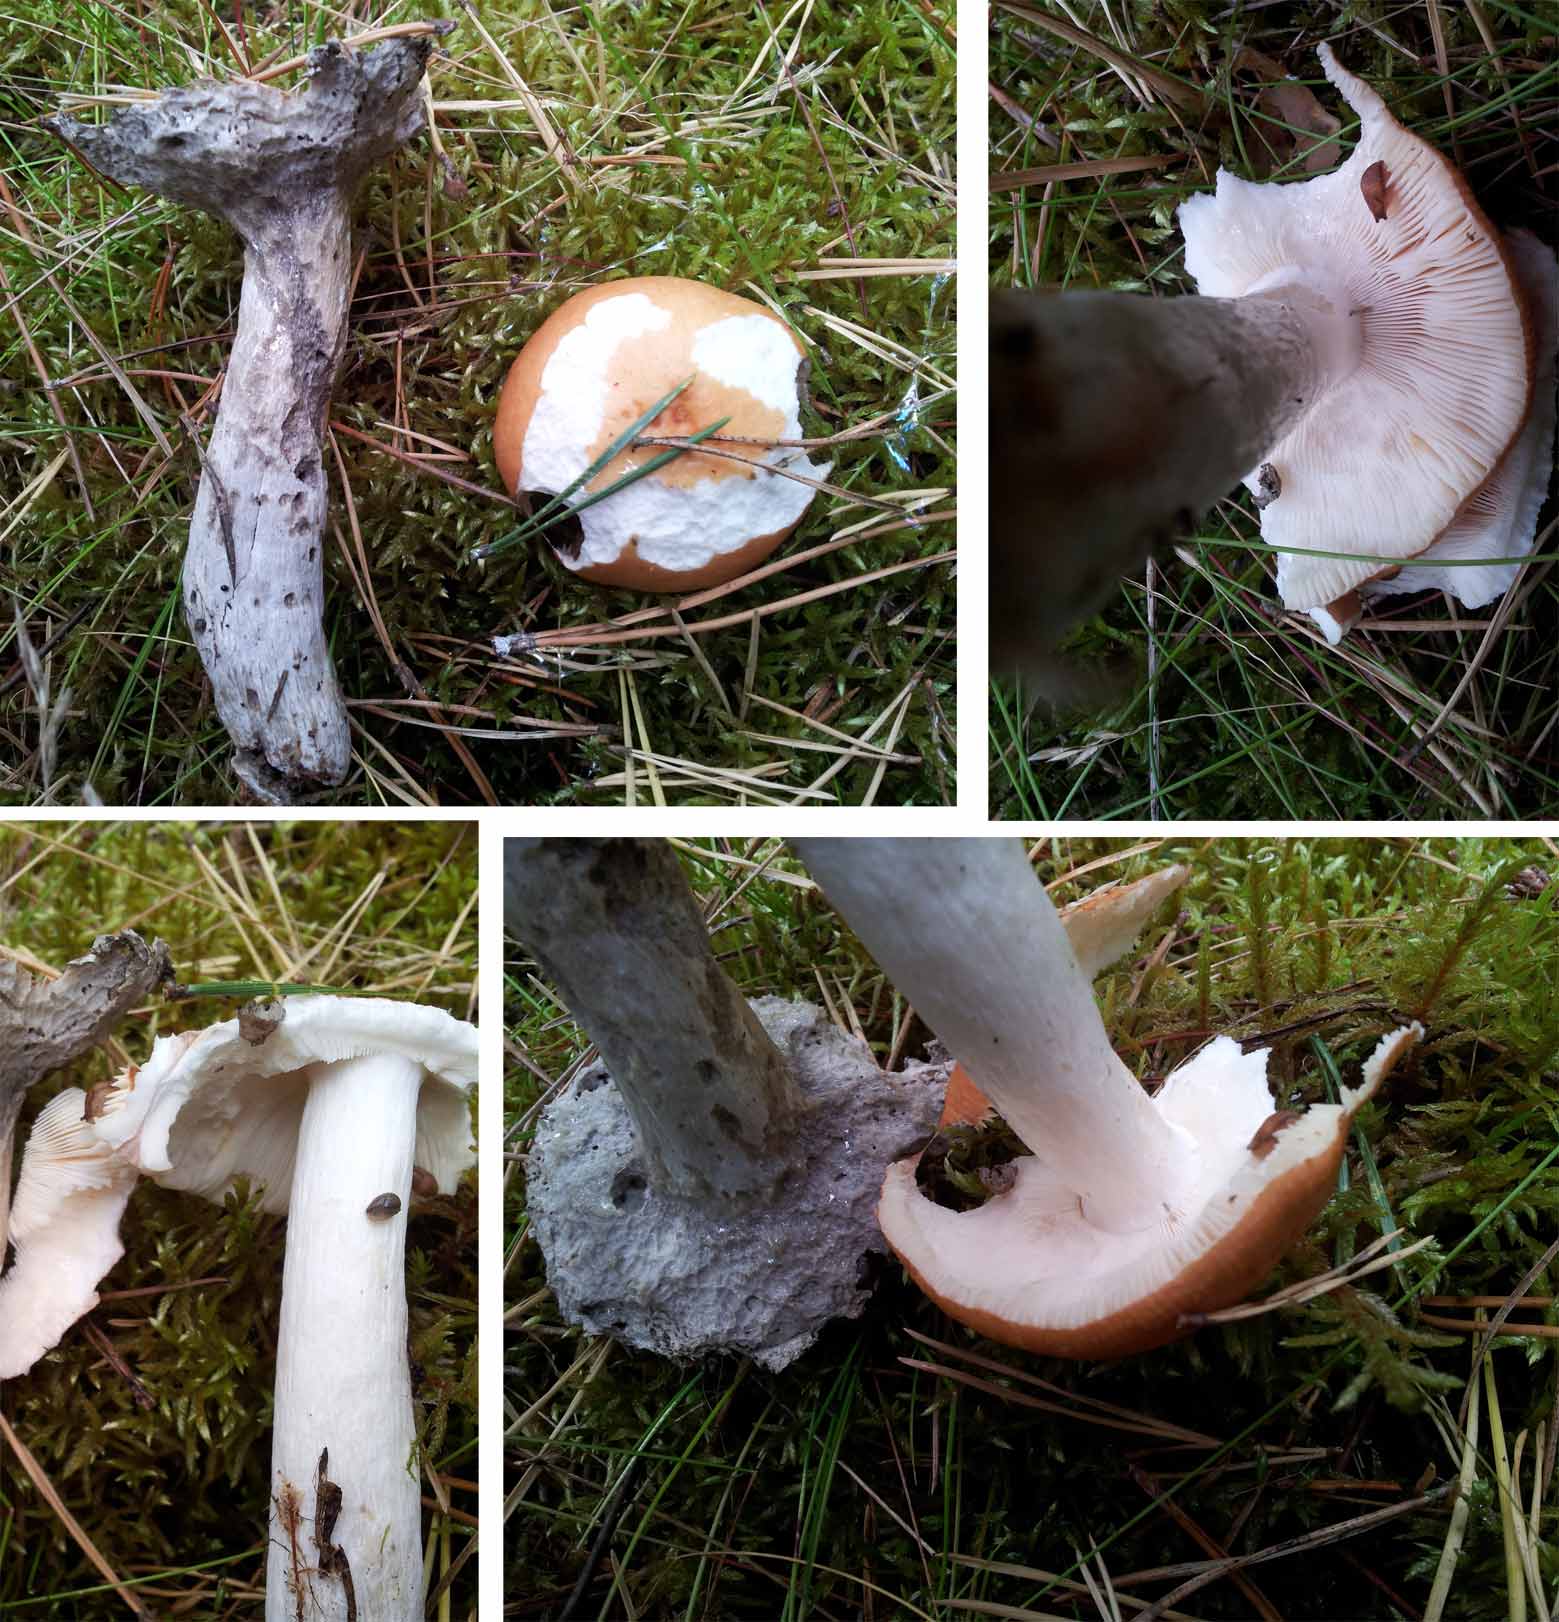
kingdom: Fungi
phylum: Basidiomycota
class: Agaricomycetes
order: Russulales
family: Russulaceae
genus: Russula
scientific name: Russula decolorans
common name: afblegende skørhat
